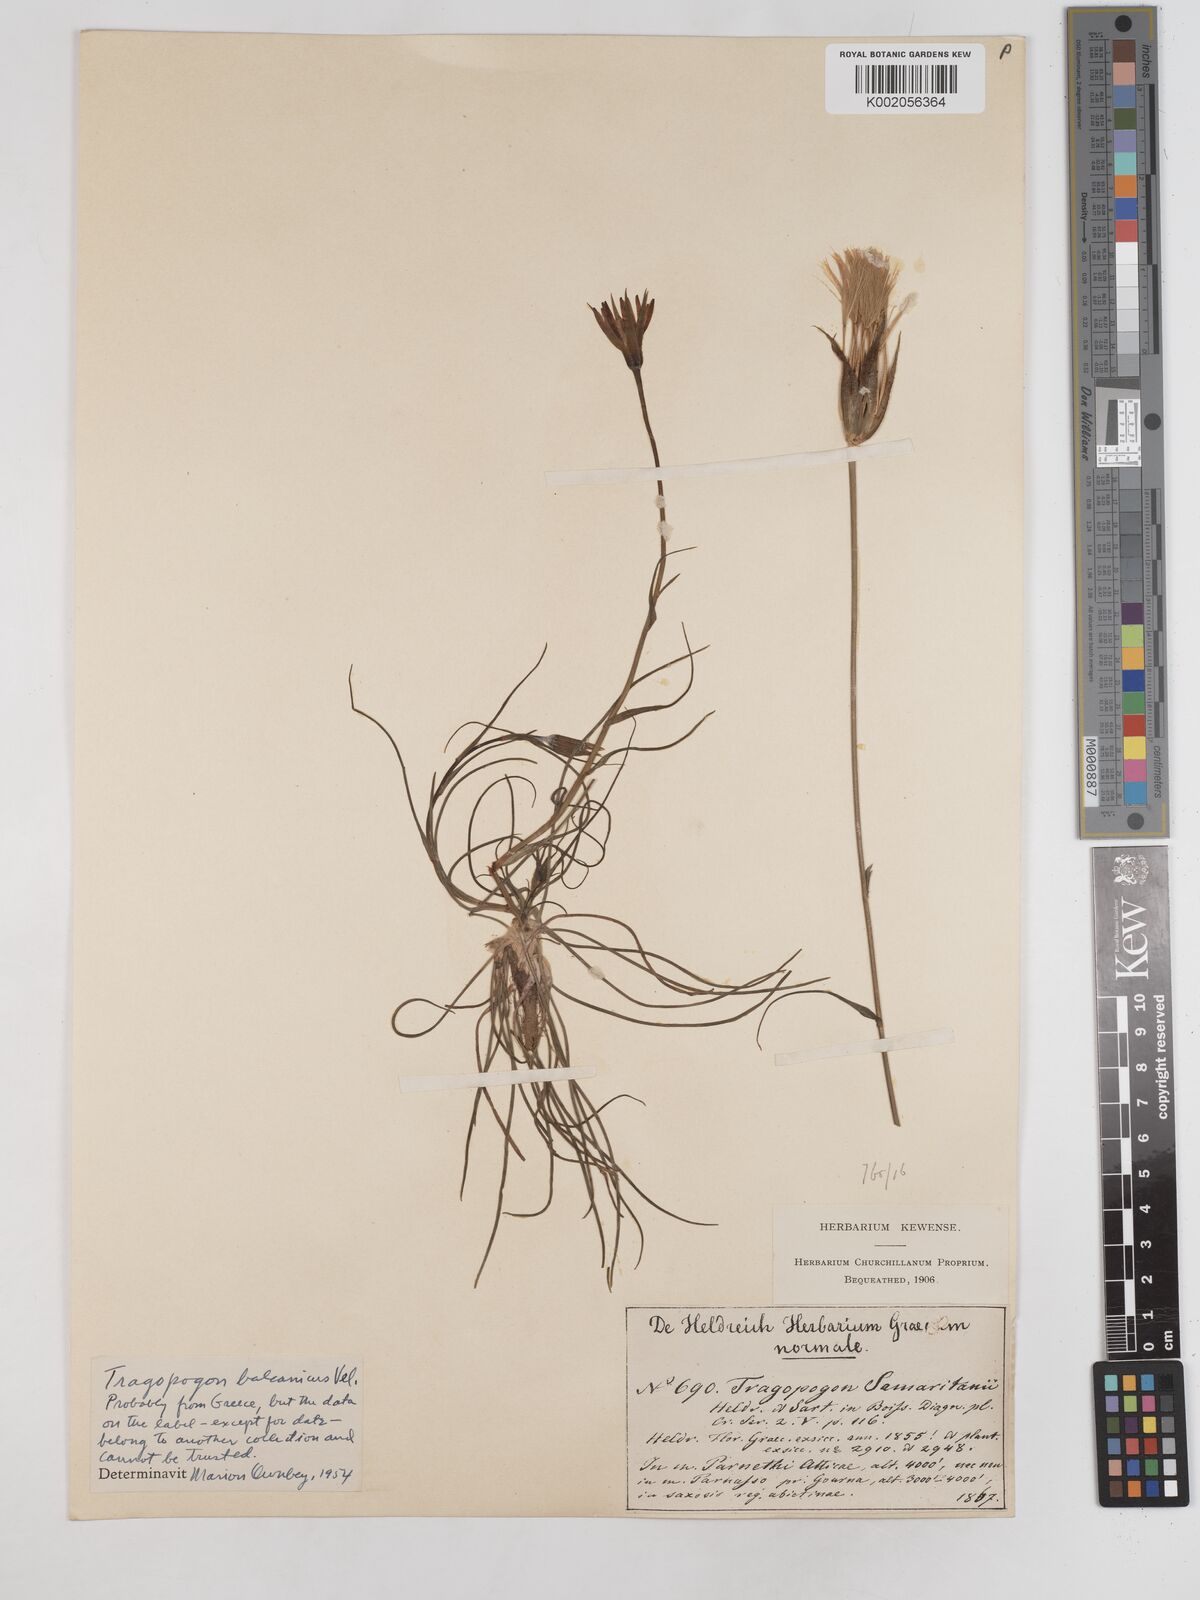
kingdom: Plantae
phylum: Tracheophyta
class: Magnoliopsida
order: Asterales
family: Asteraceae
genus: Tragopogon
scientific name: Tragopogon balcanicus
